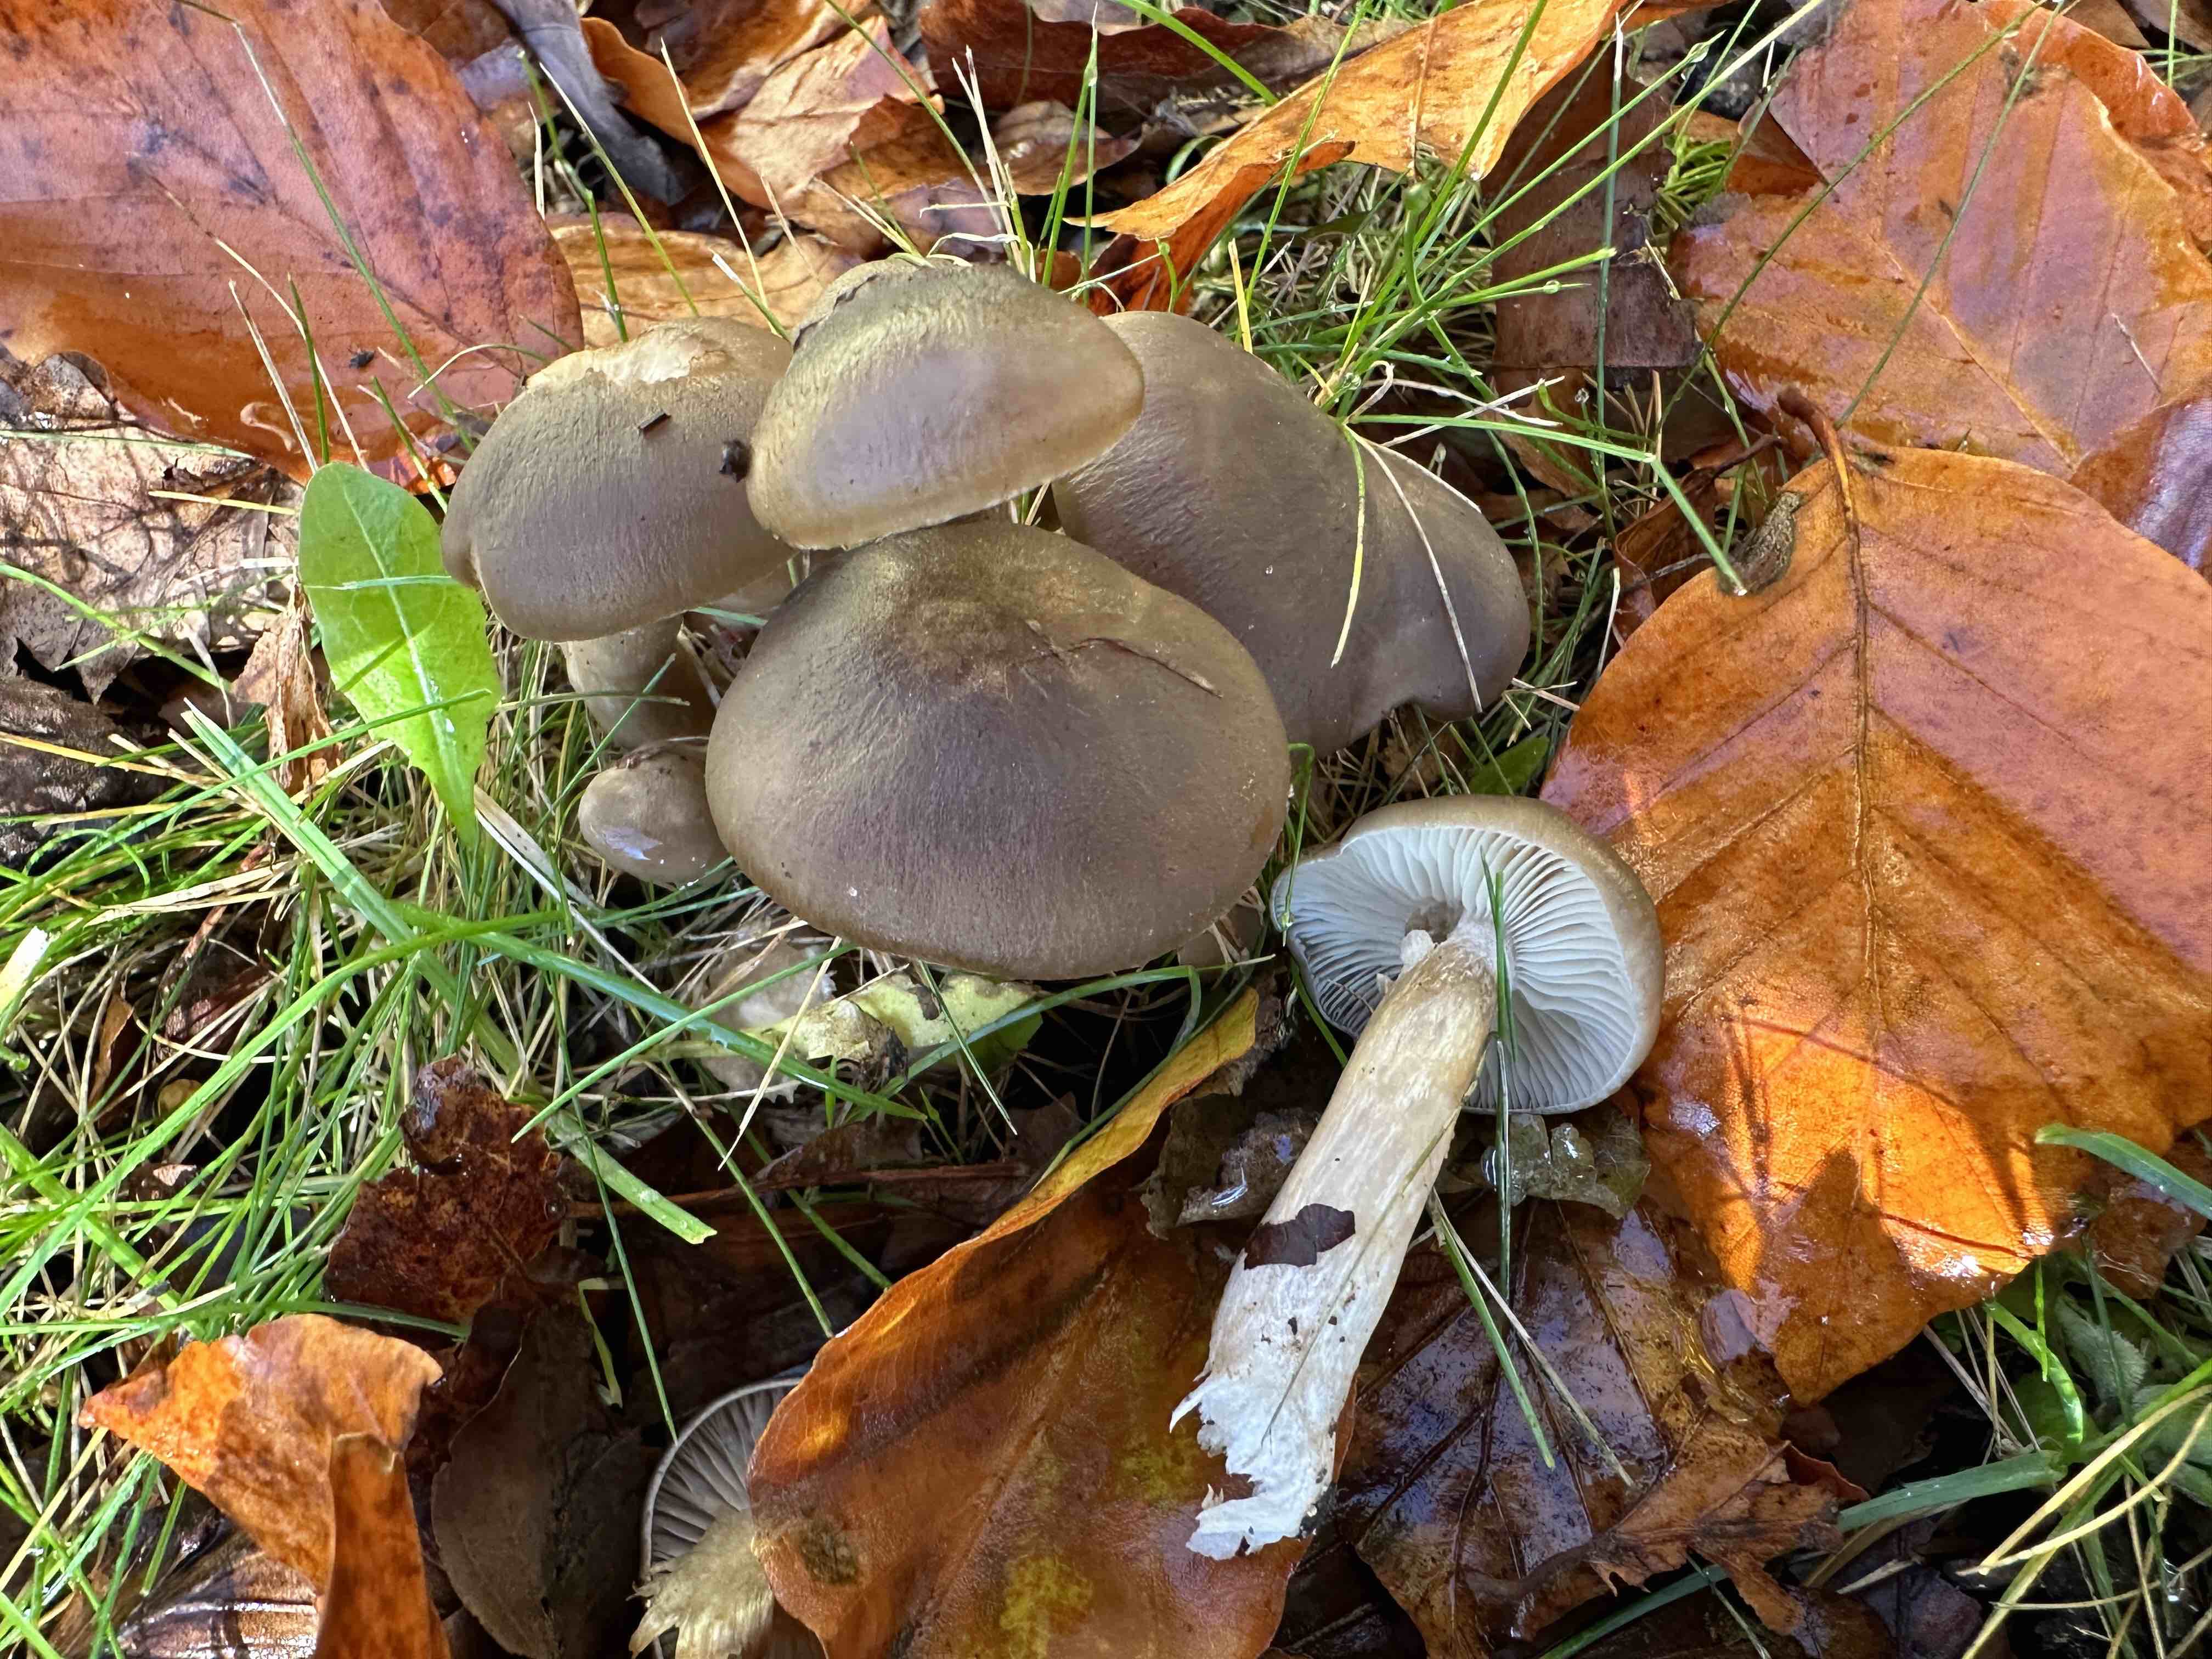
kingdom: Fungi
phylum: Basidiomycota
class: Agaricomycetes
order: Agaricales
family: Lyophyllaceae
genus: Lyophyllum
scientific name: Lyophyllum decastes
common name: røggrå gråblad
